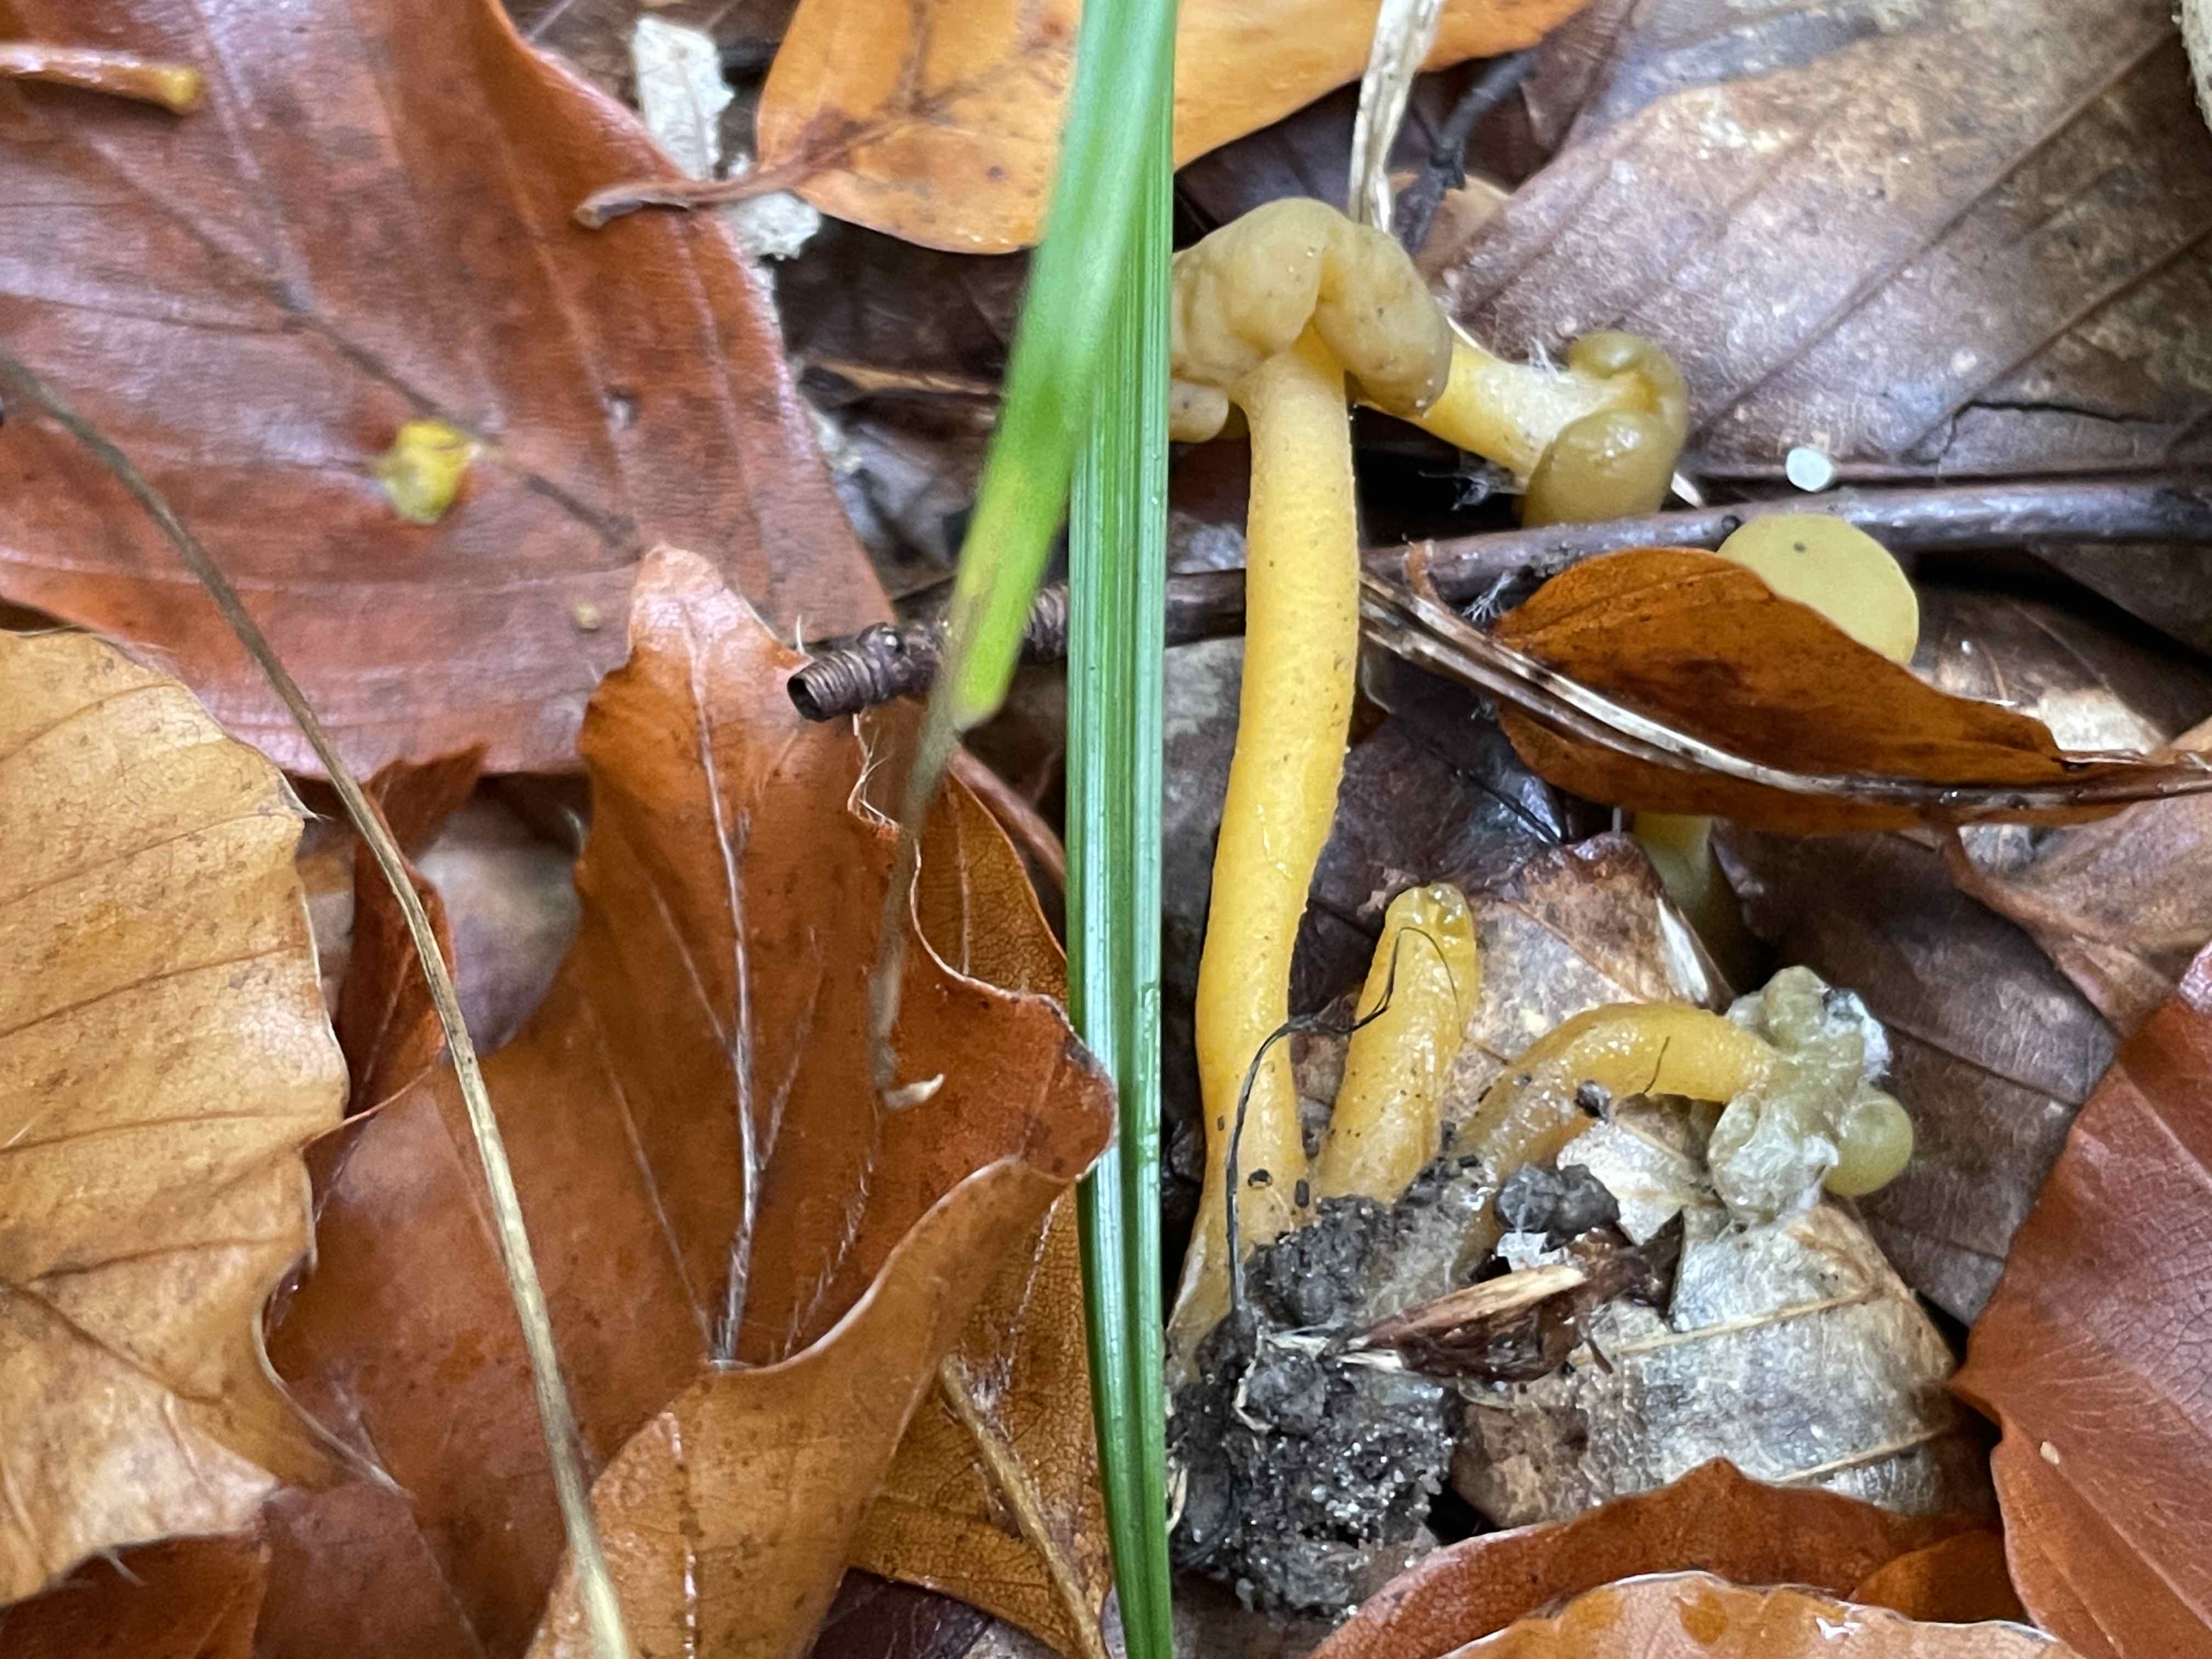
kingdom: Fungi
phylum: Ascomycota
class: Leotiomycetes
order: Leotiales
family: Leotiaceae
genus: Leotia
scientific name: Leotia lubrica
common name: ravsvamp
